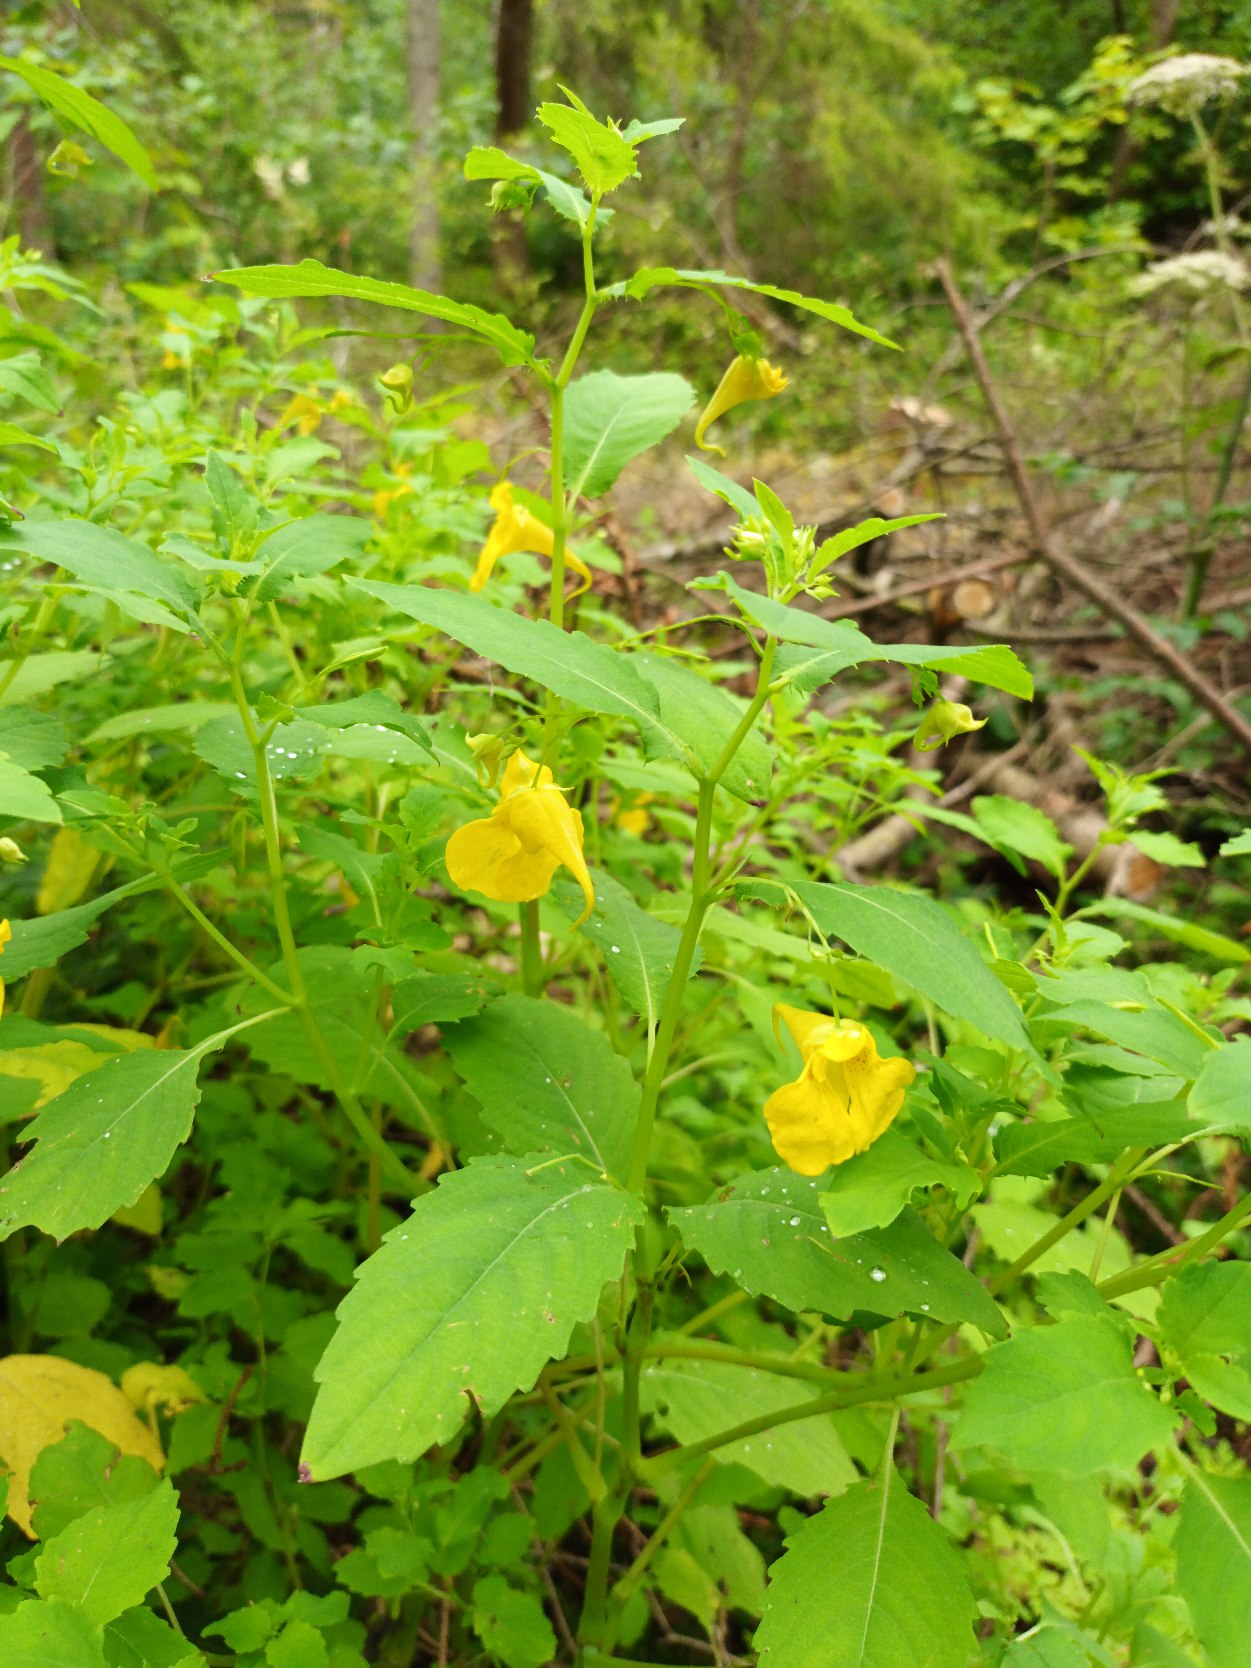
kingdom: Plantae
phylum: Tracheophyta
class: Magnoliopsida
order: Ericales
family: Balsaminaceae
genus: Impatiens
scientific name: Impatiens noli-tangere
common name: Spring-balsamin
